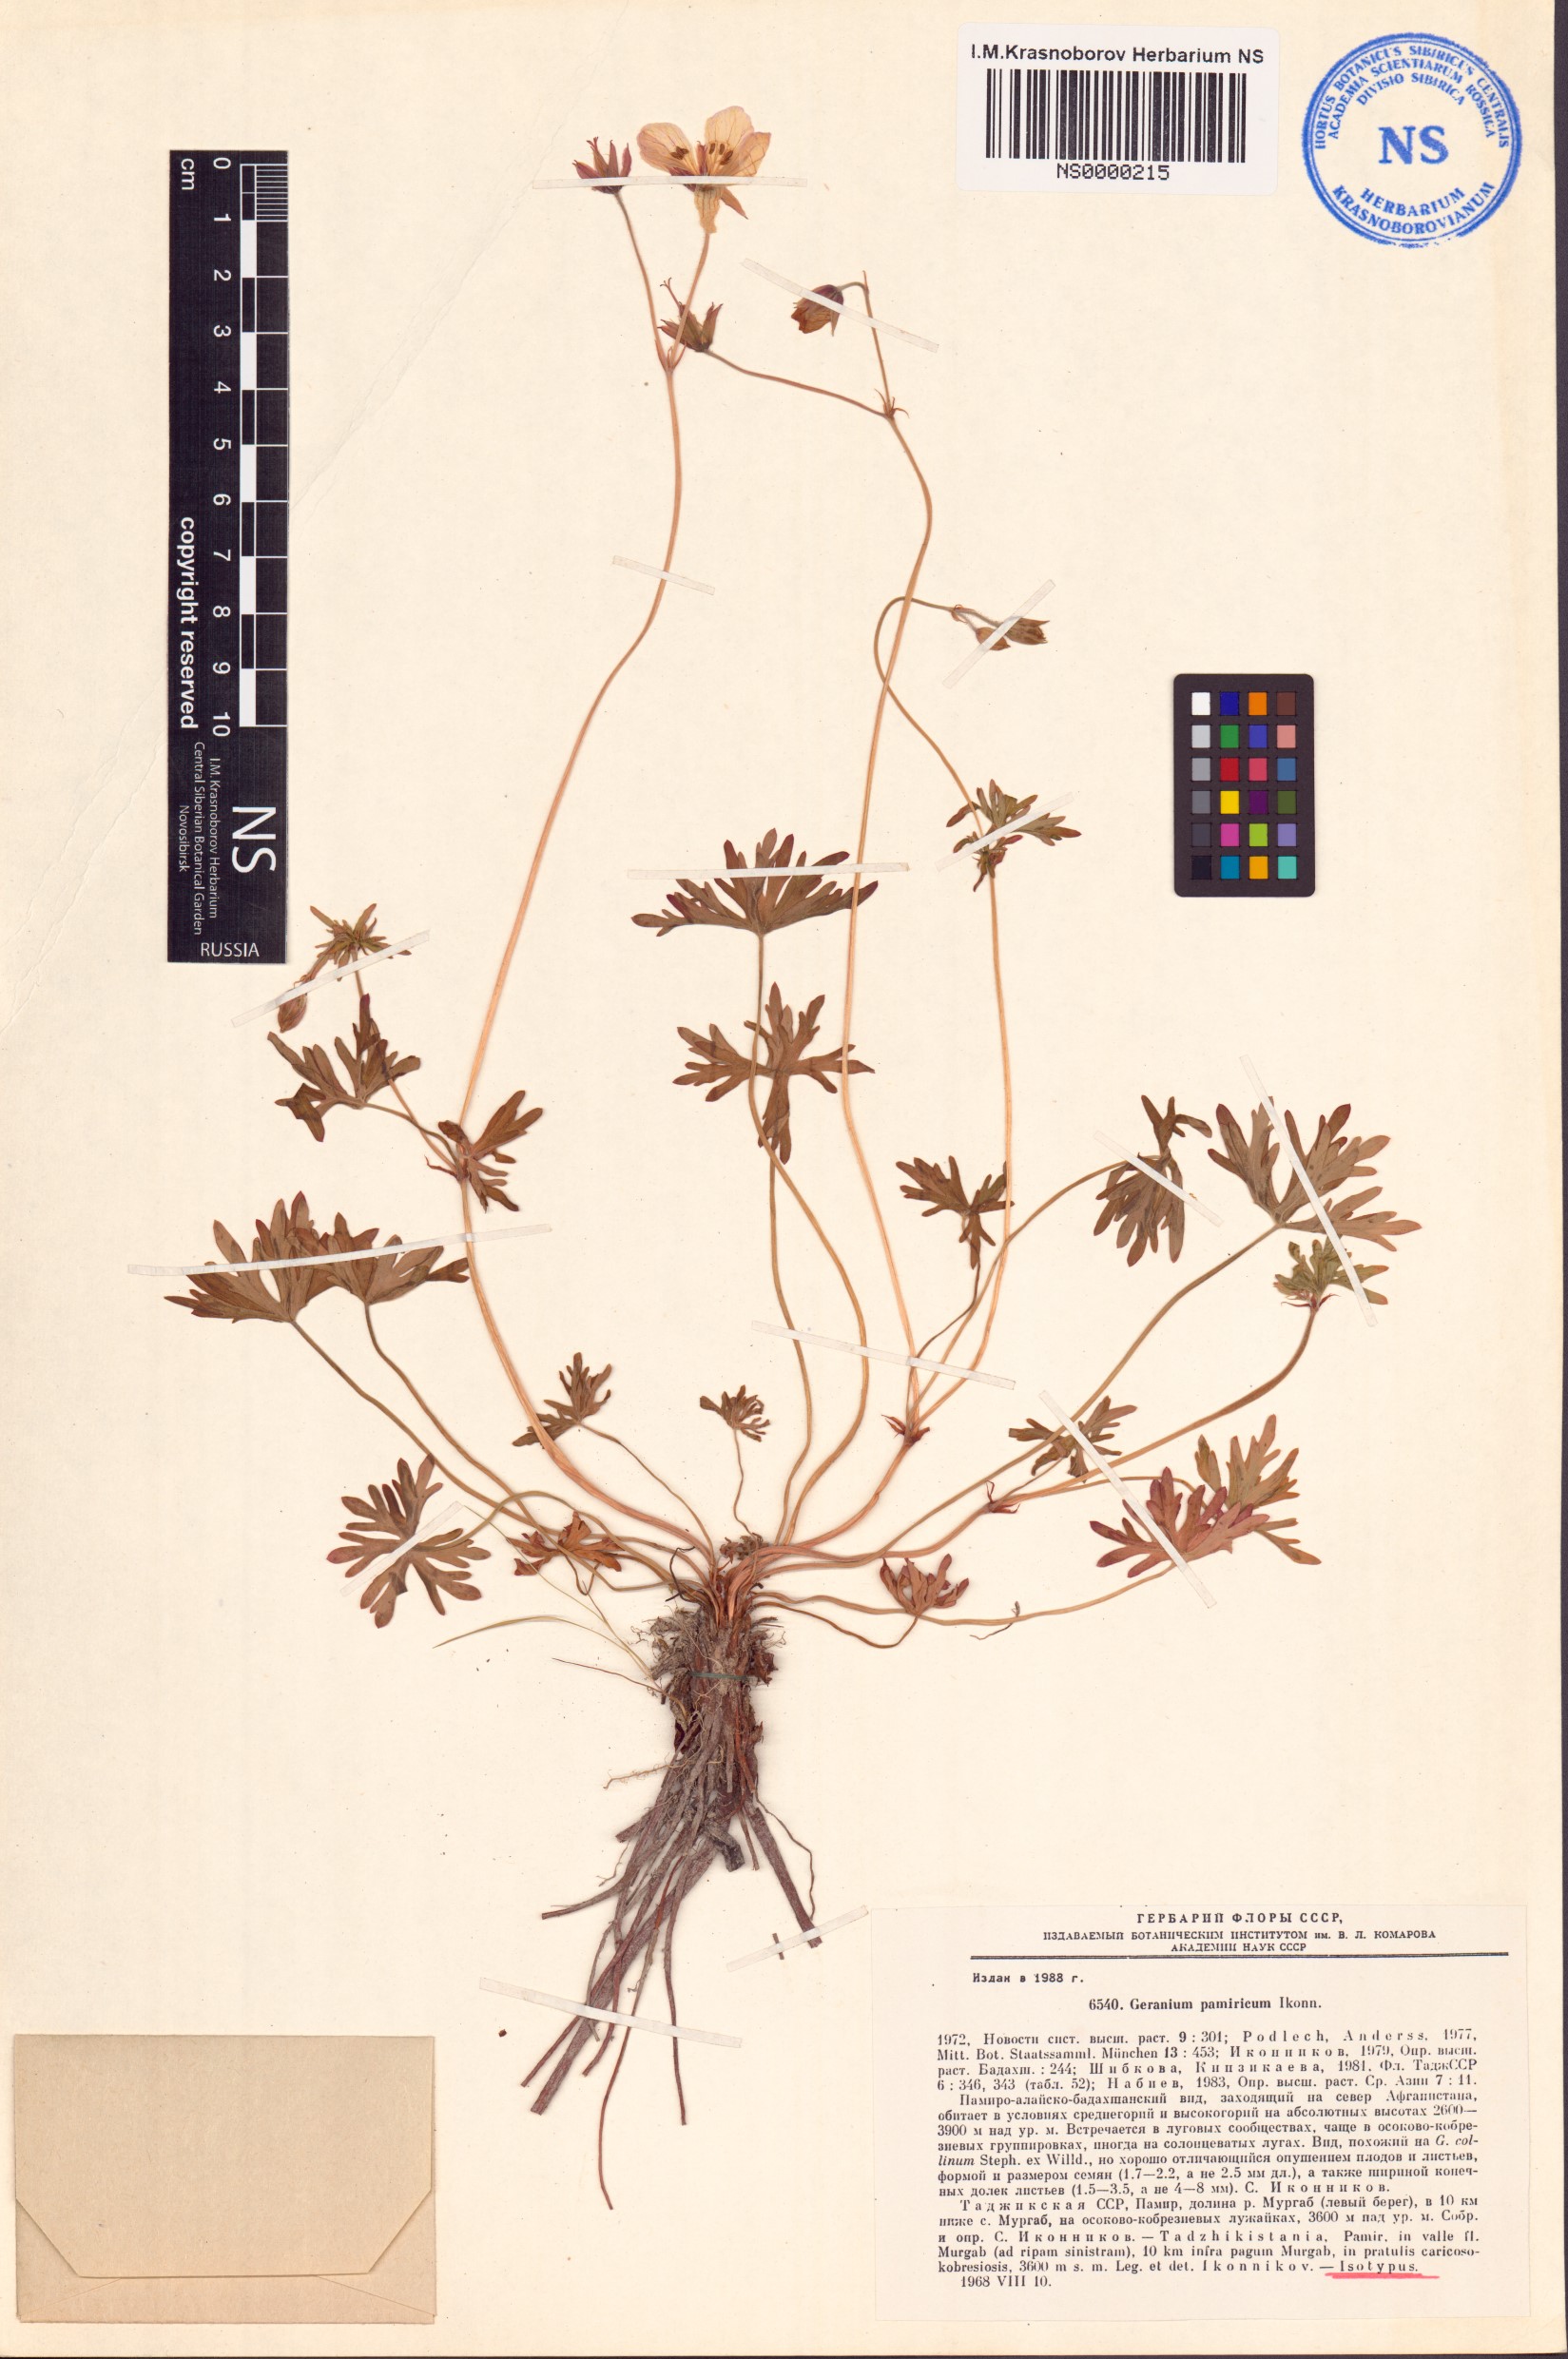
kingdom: Plantae
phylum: Tracheophyta
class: Magnoliopsida
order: Geraniales
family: Geraniaceae
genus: Geranium
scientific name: Geranium collinum
